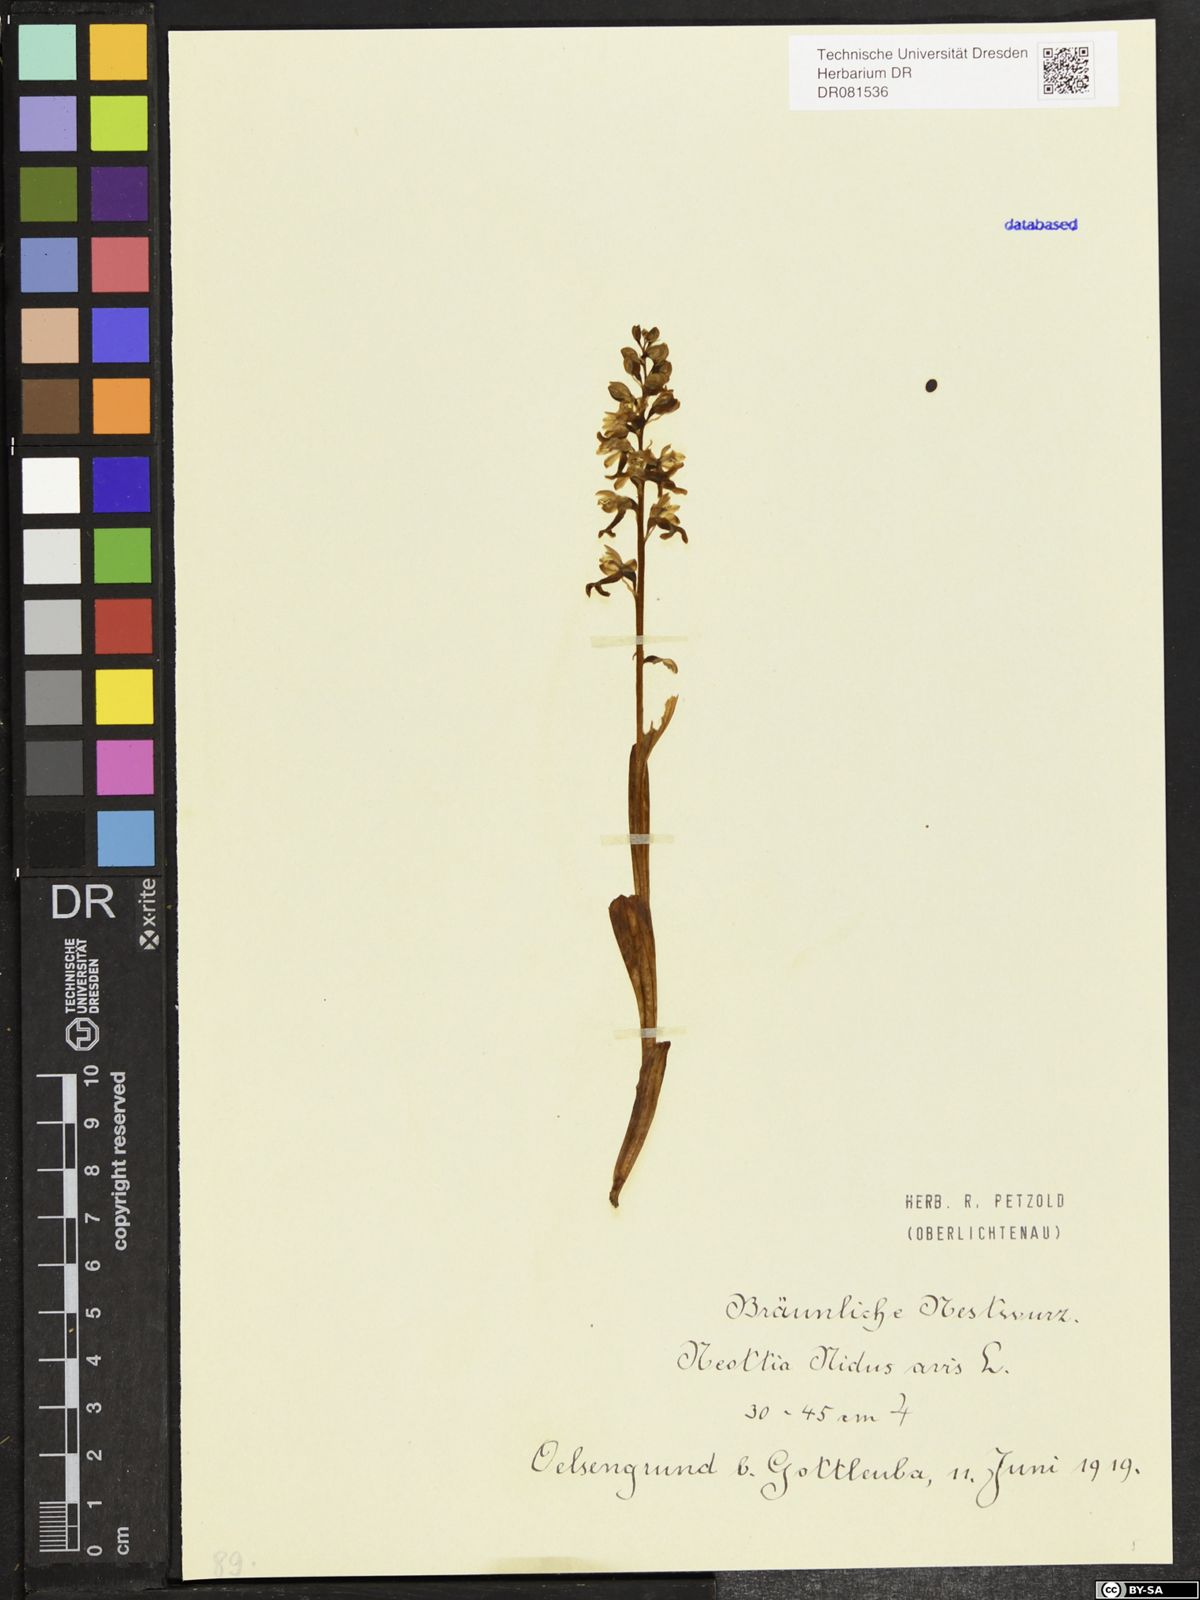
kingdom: Plantae
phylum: Tracheophyta
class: Liliopsida
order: Asparagales
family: Orchidaceae
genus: Neottia
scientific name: Neottia nidus-avis
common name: Bird's-nest orchid
